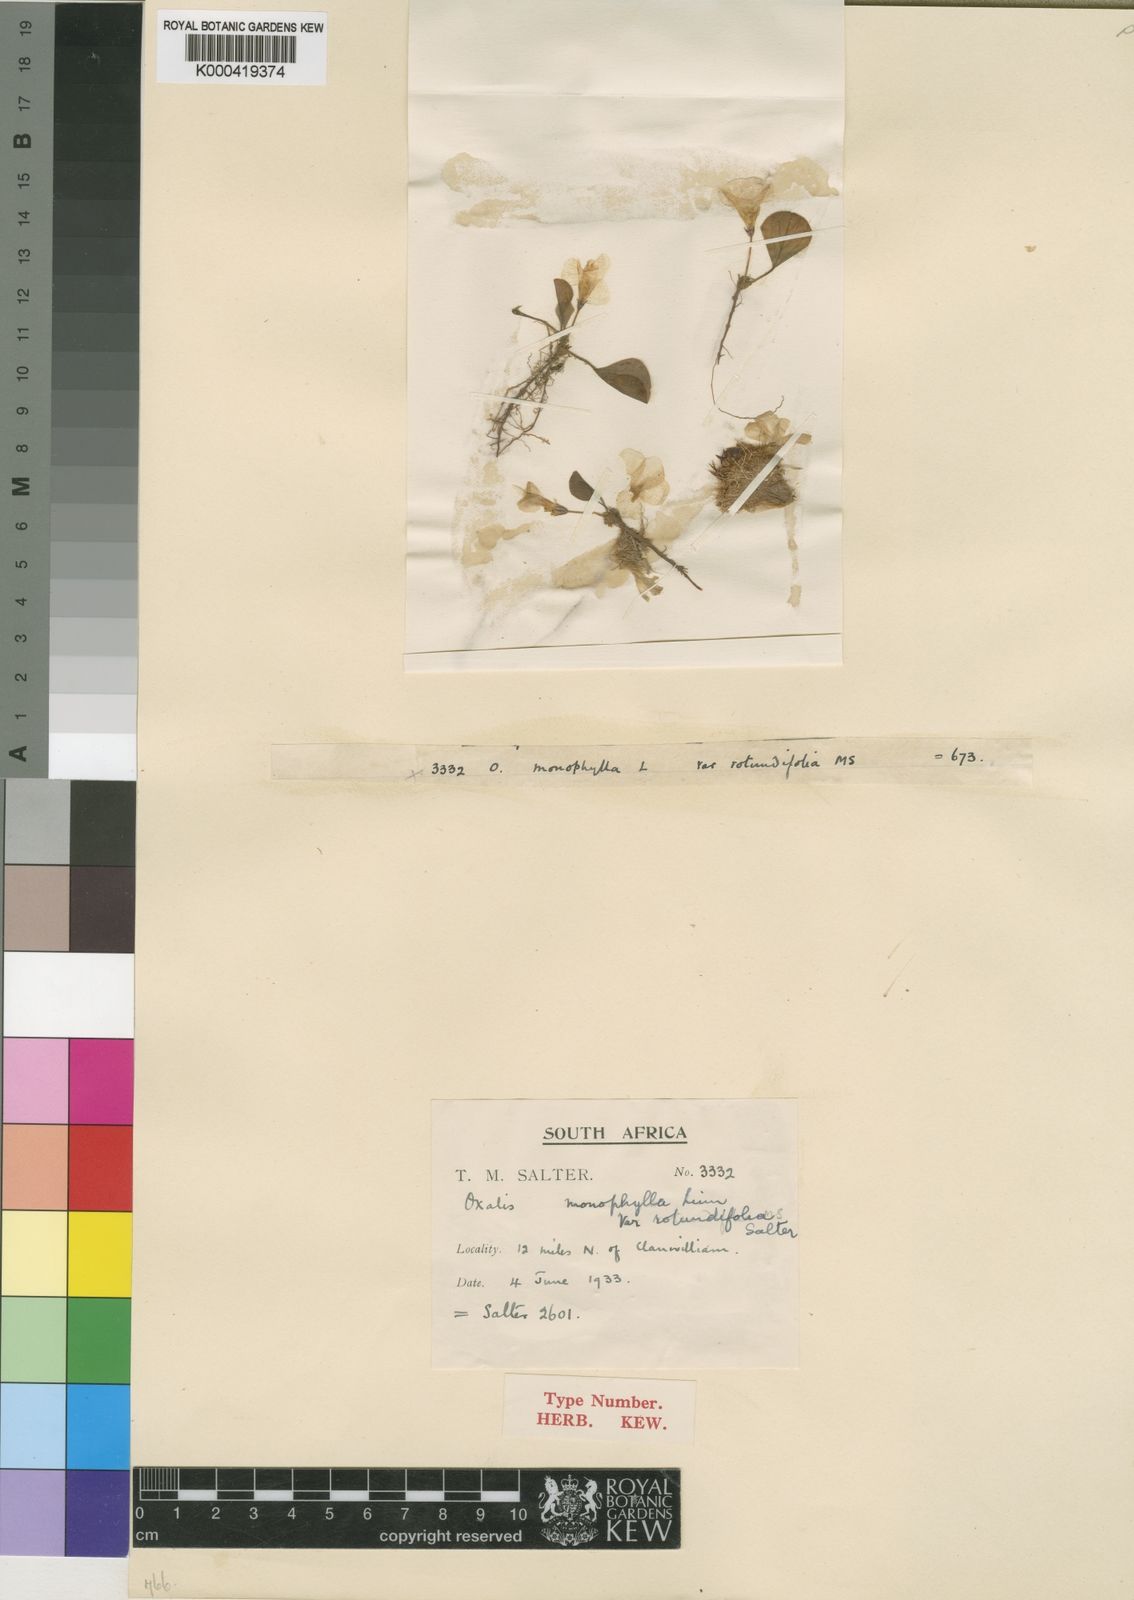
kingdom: Plantae
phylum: Tracheophyta
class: Magnoliopsida
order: Oxalidales
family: Oxalidaceae
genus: Oxalis
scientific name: Oxalis monophylla
